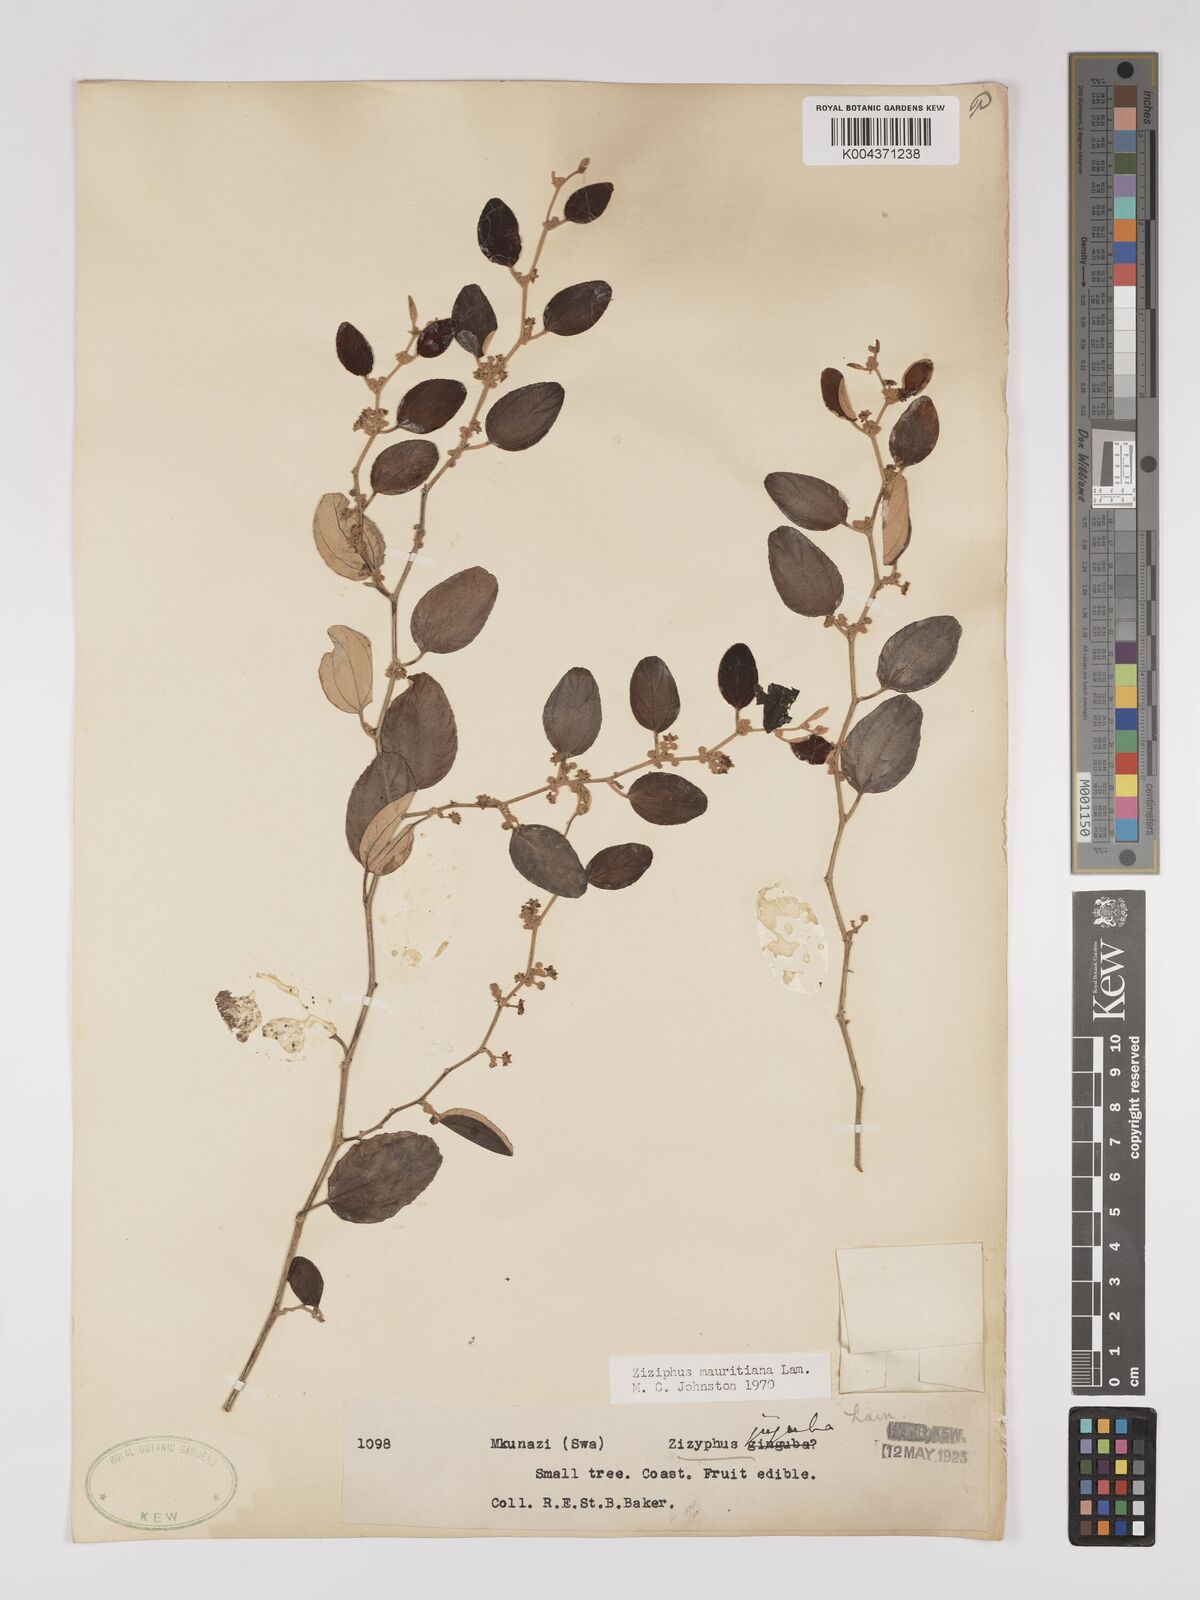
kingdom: Plantae
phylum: Tracheophyta
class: Magnoliopsida
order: Rosales
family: Rhamnaceae
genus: Ziziphus
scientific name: Ziziphus mauritiana
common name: Indian jujube
